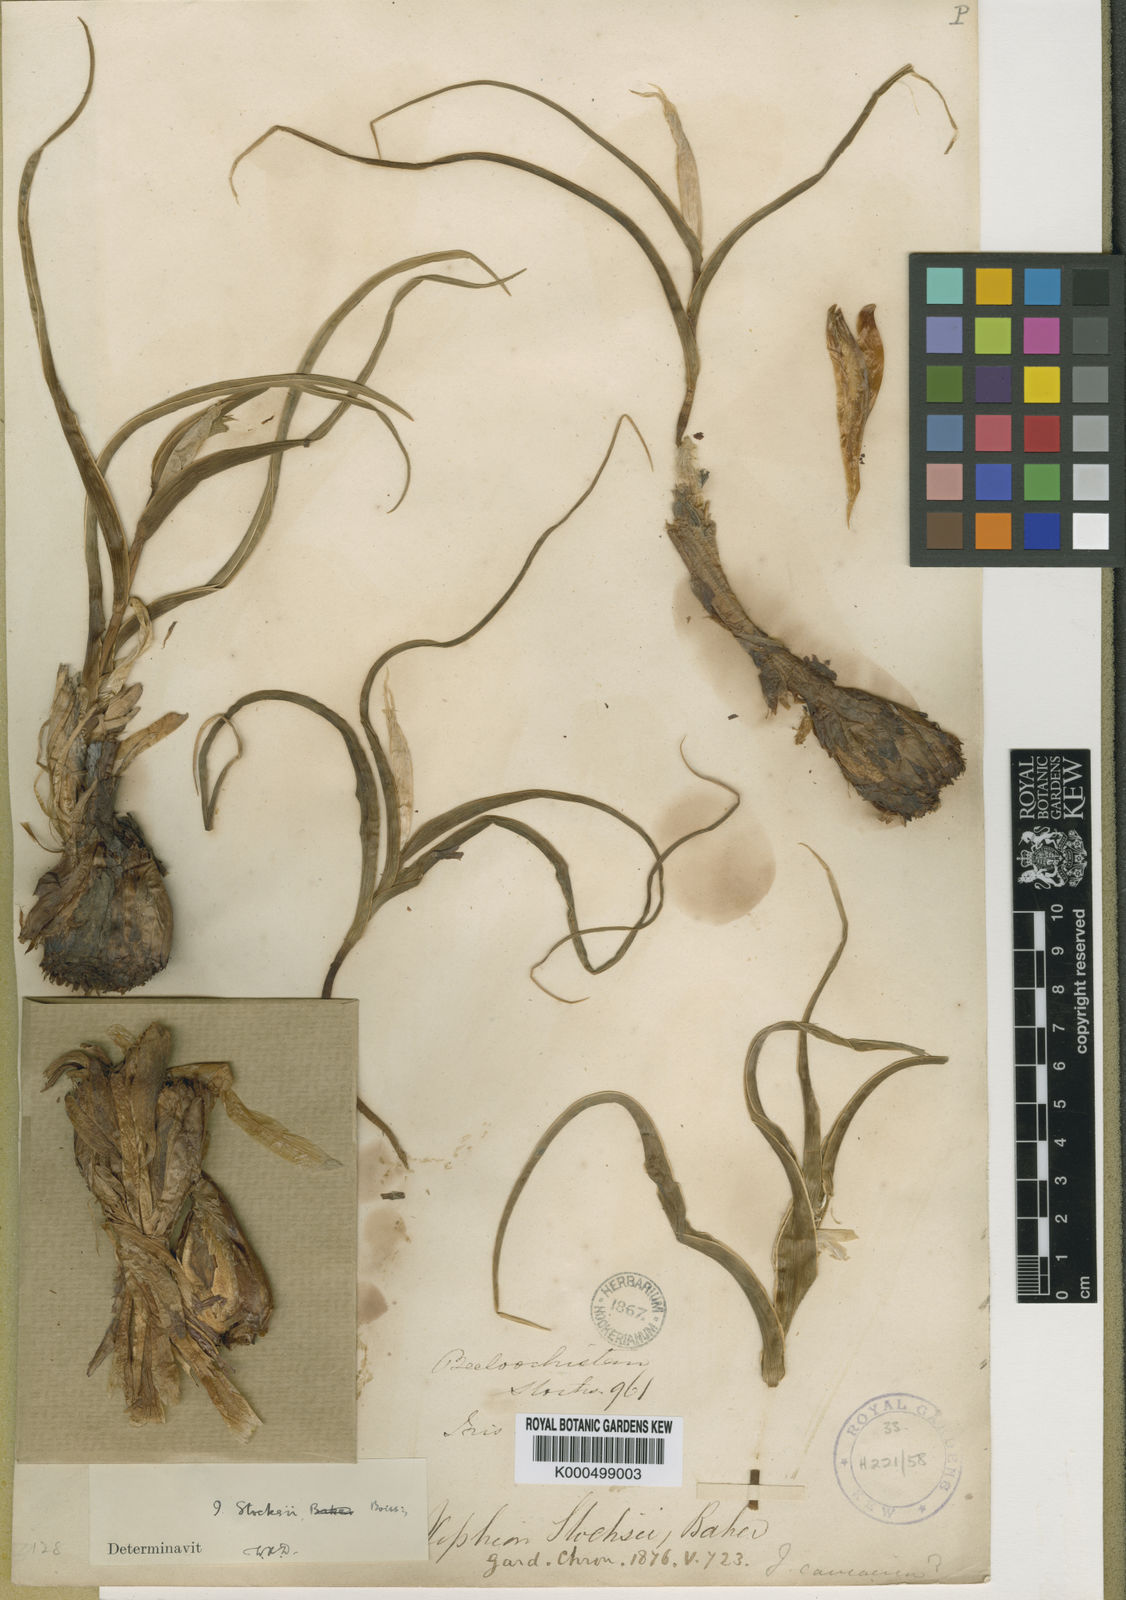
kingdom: Plantae
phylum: Tracheophyta
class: Liliopsida
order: Asparagales
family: Iridaceae
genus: Iris
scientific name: Iris stocksii
